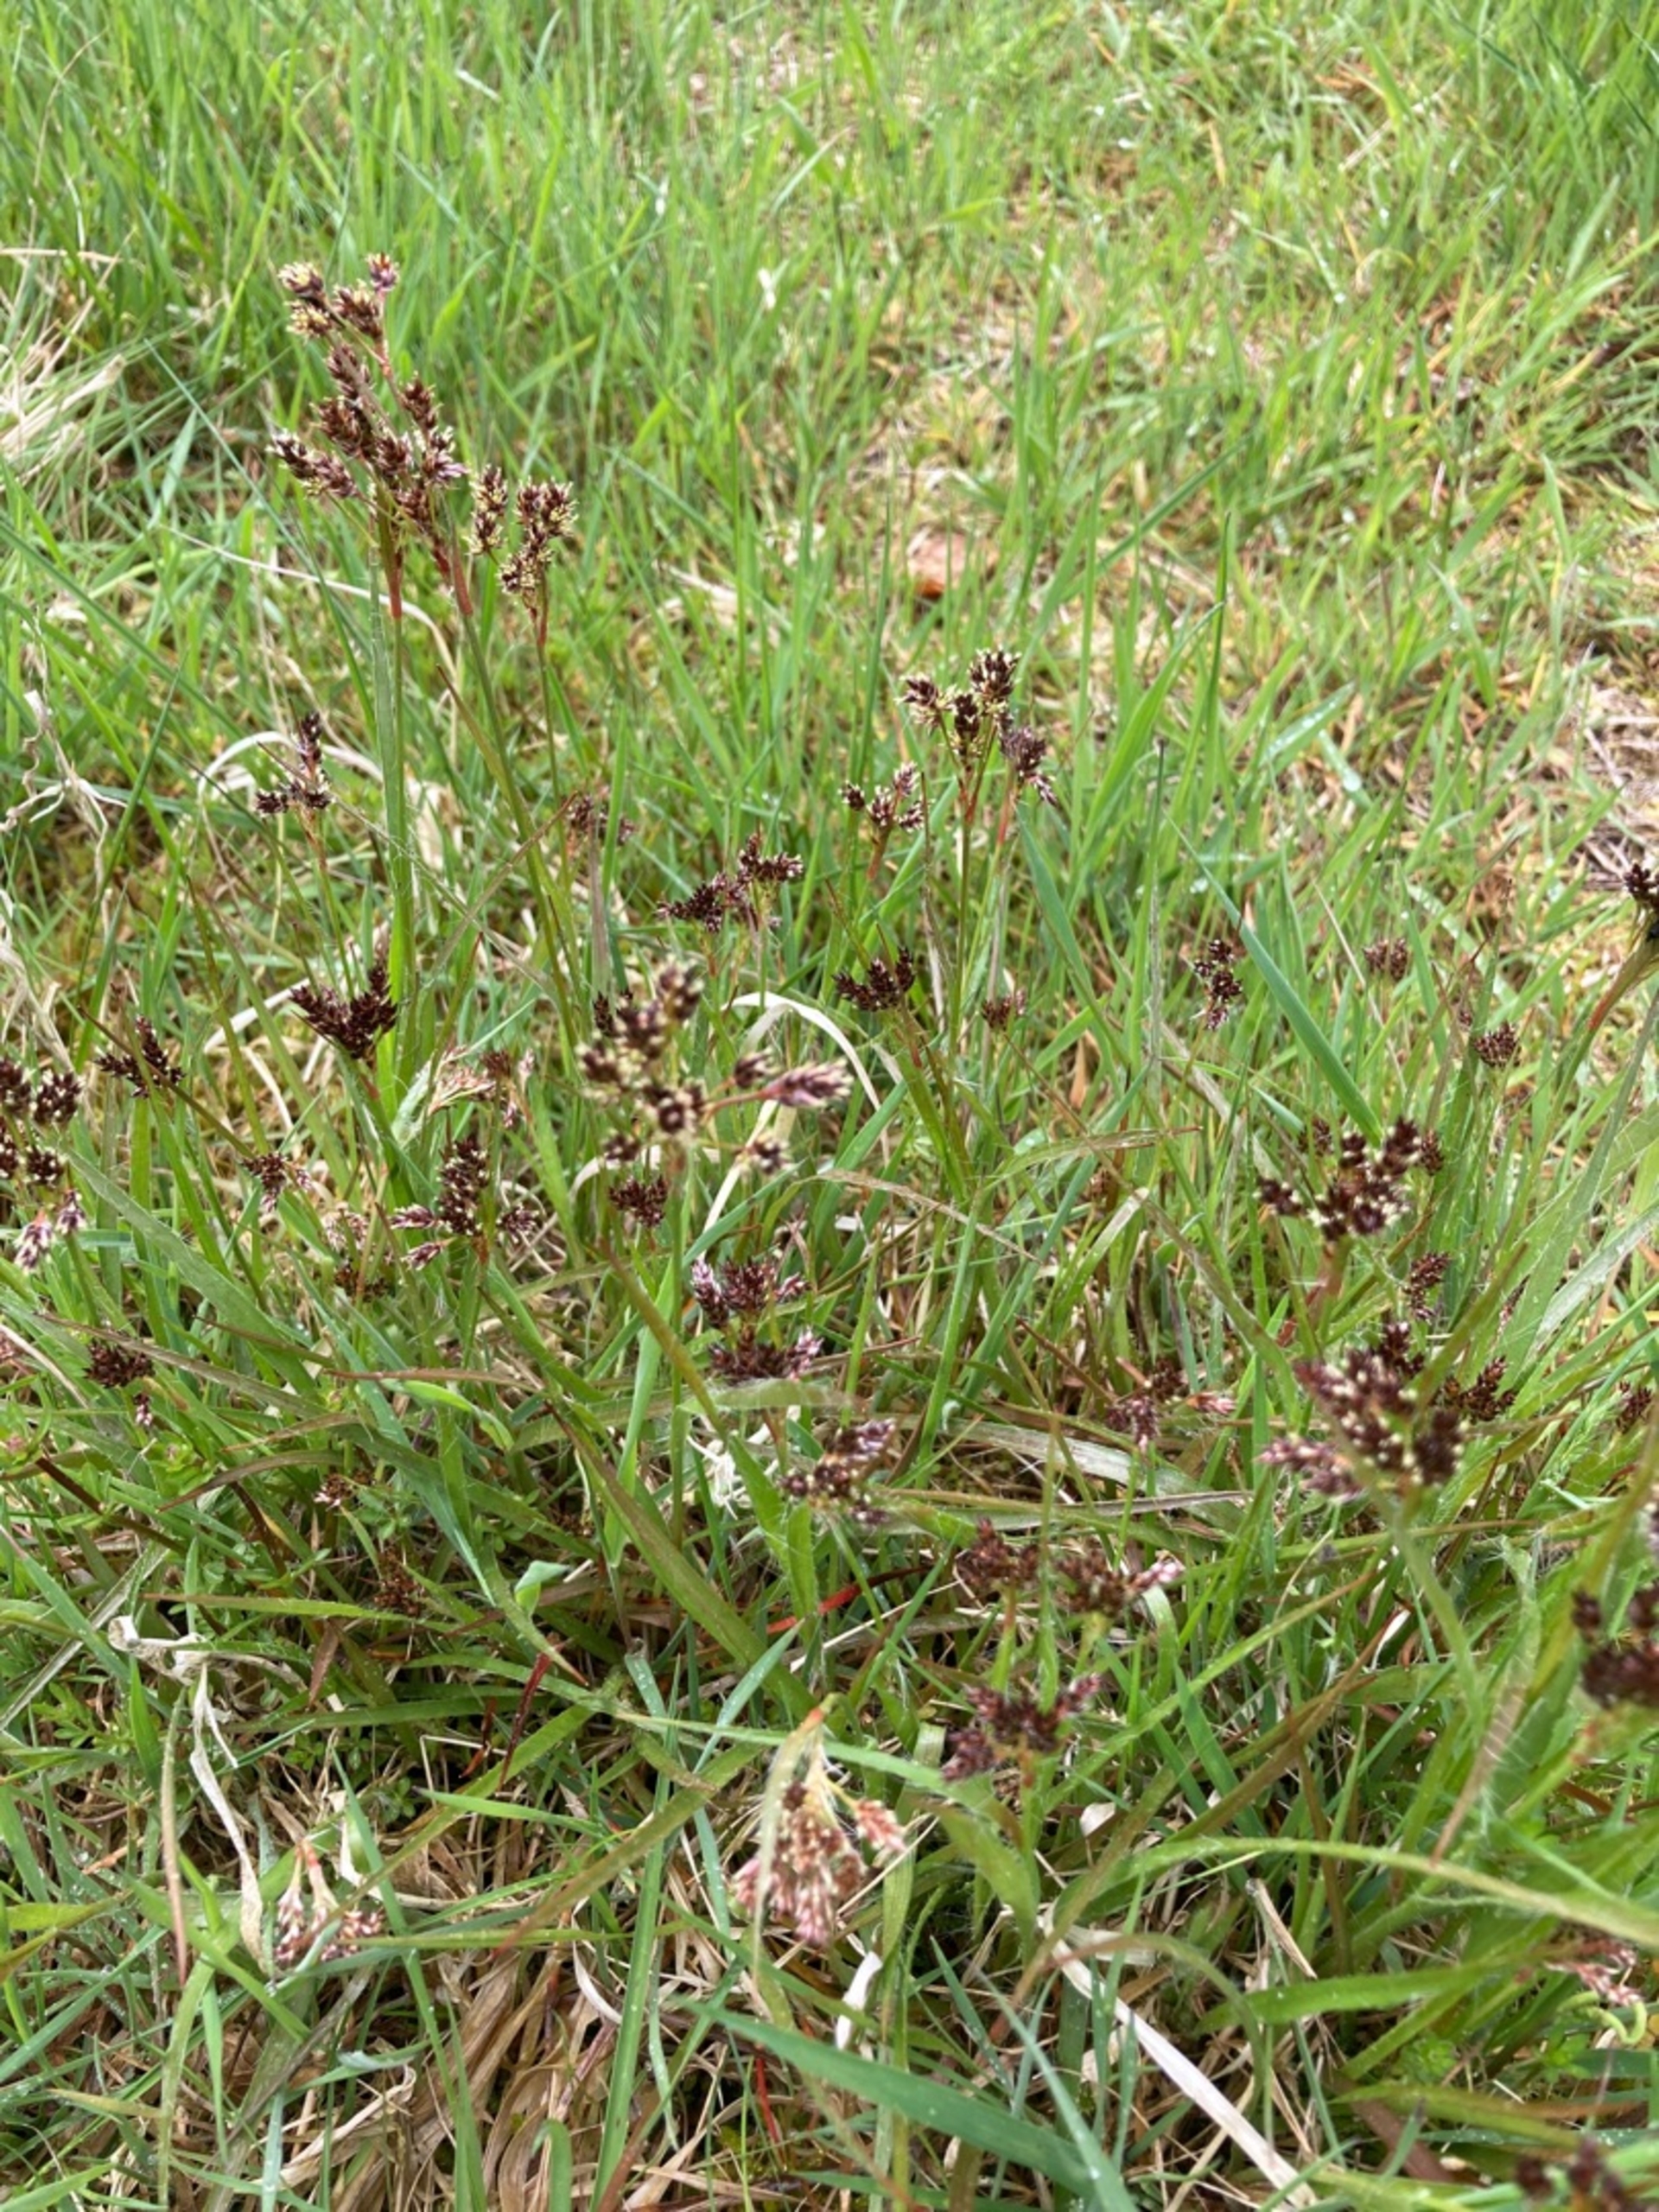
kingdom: Plantae
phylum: Tracheophyta
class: Liliopsida
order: Poales
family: Juncaceae
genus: Luzula
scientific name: Luzula campestris
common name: Mark-frytle
